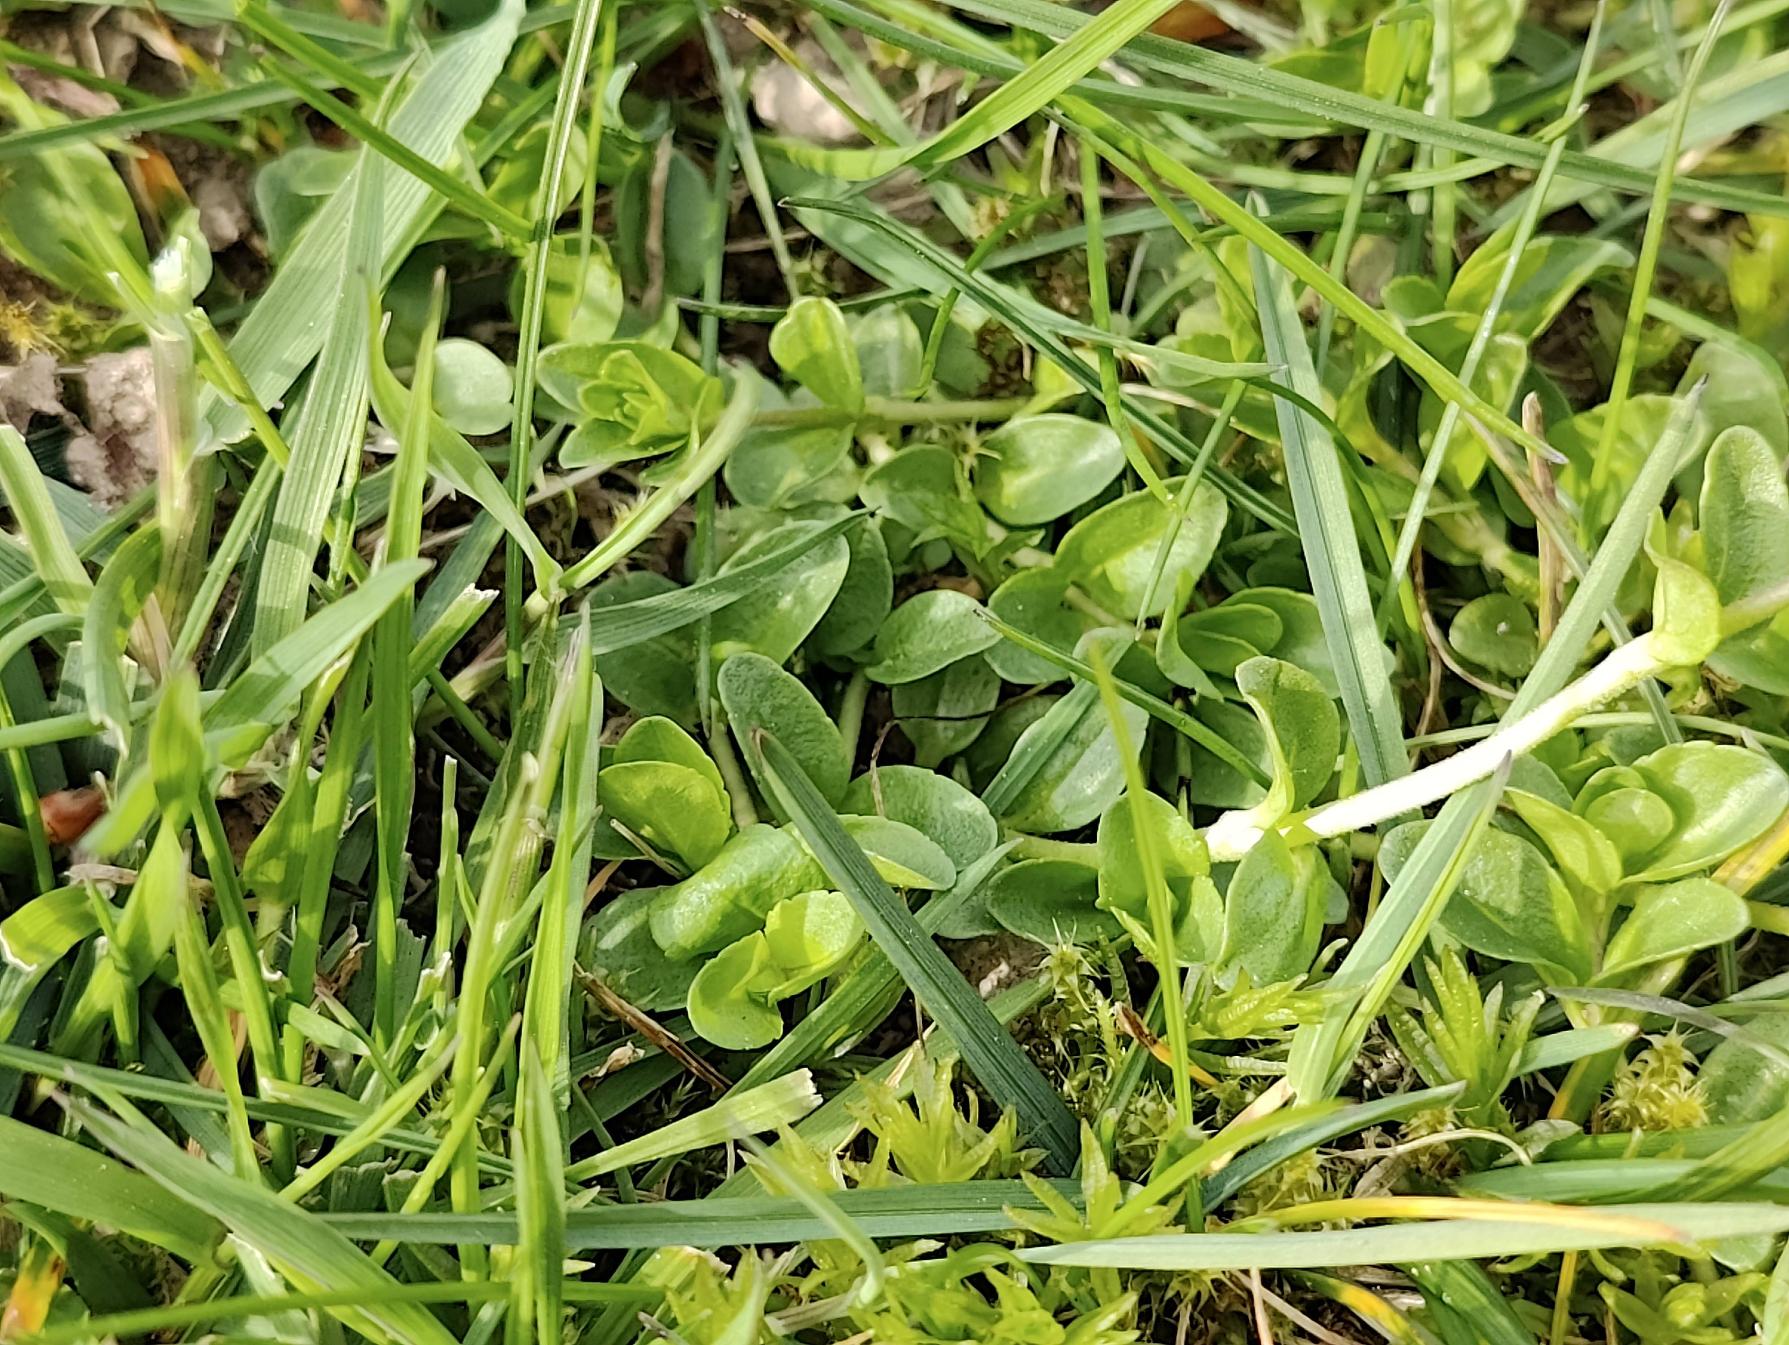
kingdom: Plantae
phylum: Tracheophyta
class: Magnoliopsida
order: Lamiales
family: Plantaginaceae
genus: Veronica
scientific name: Veronica serpyllifolia
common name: Glat ærenpris
